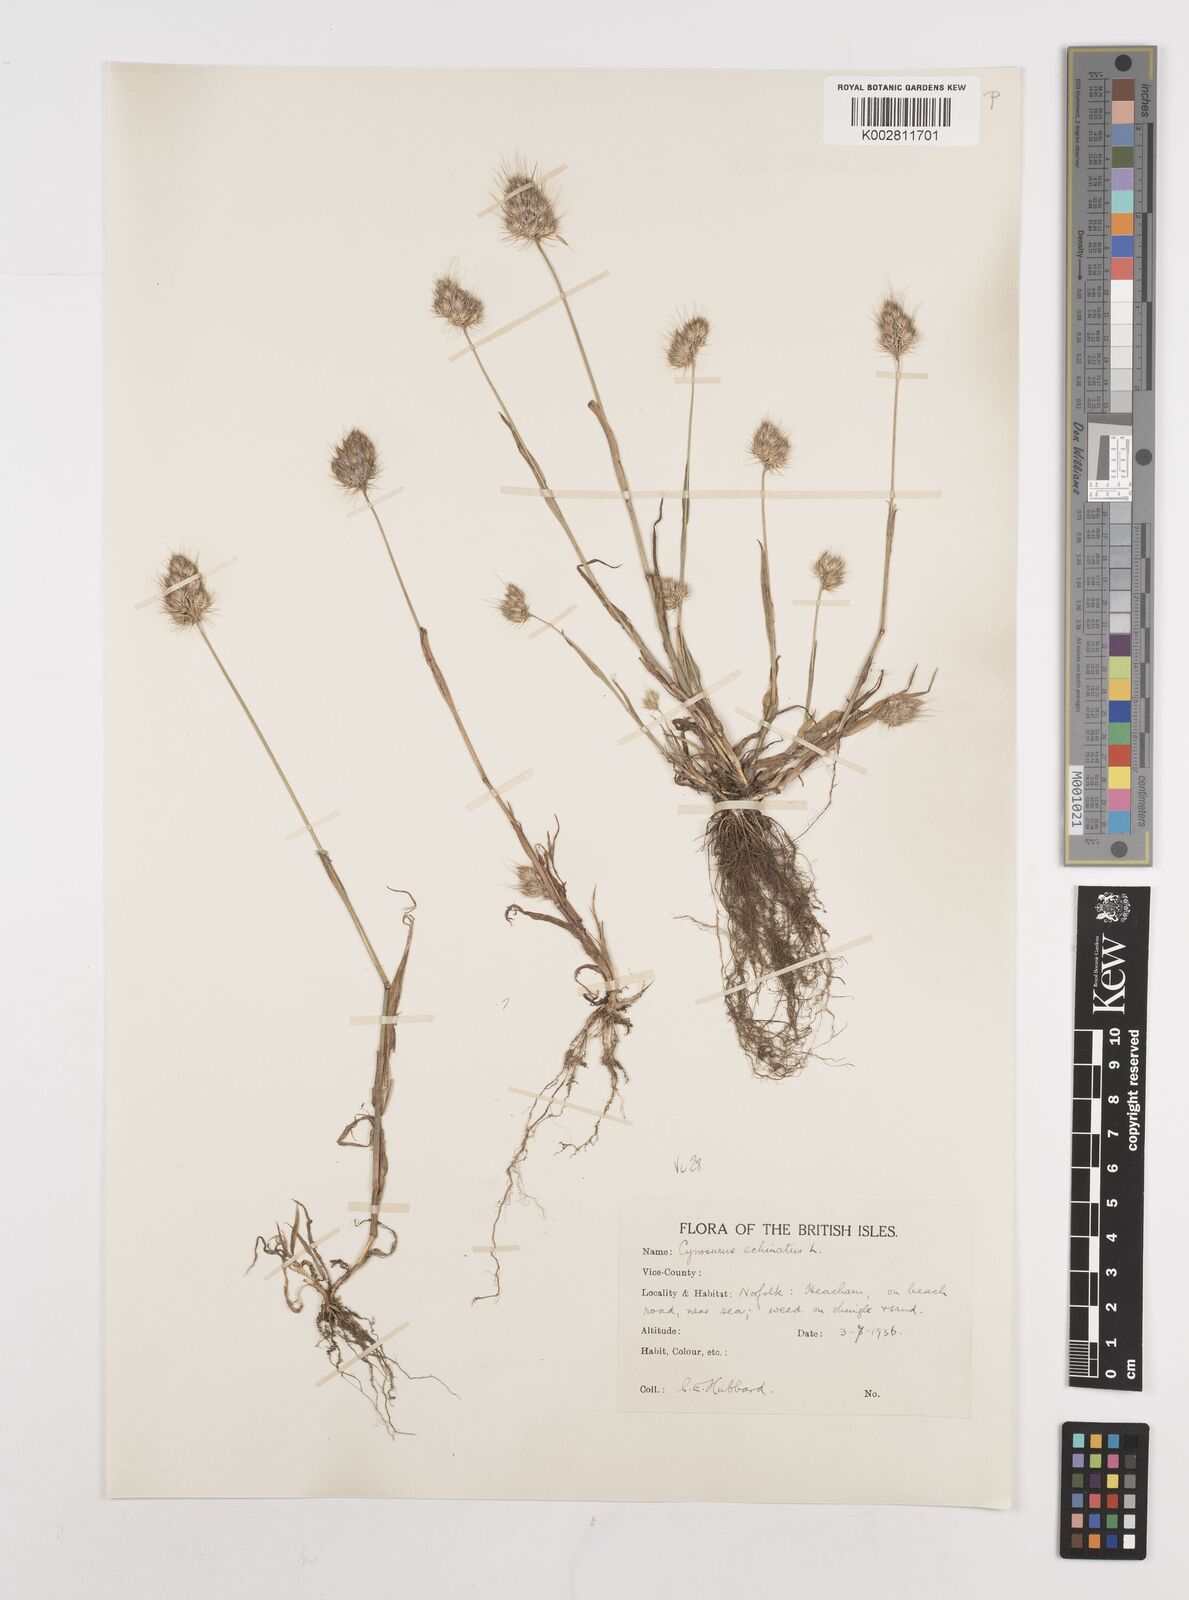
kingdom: Plantae
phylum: Tracheophyta
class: Liliopsida
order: Poales
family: Poaceae
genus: Cynosurus
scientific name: Cynosurus echinatus
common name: Rough dog's-tail
